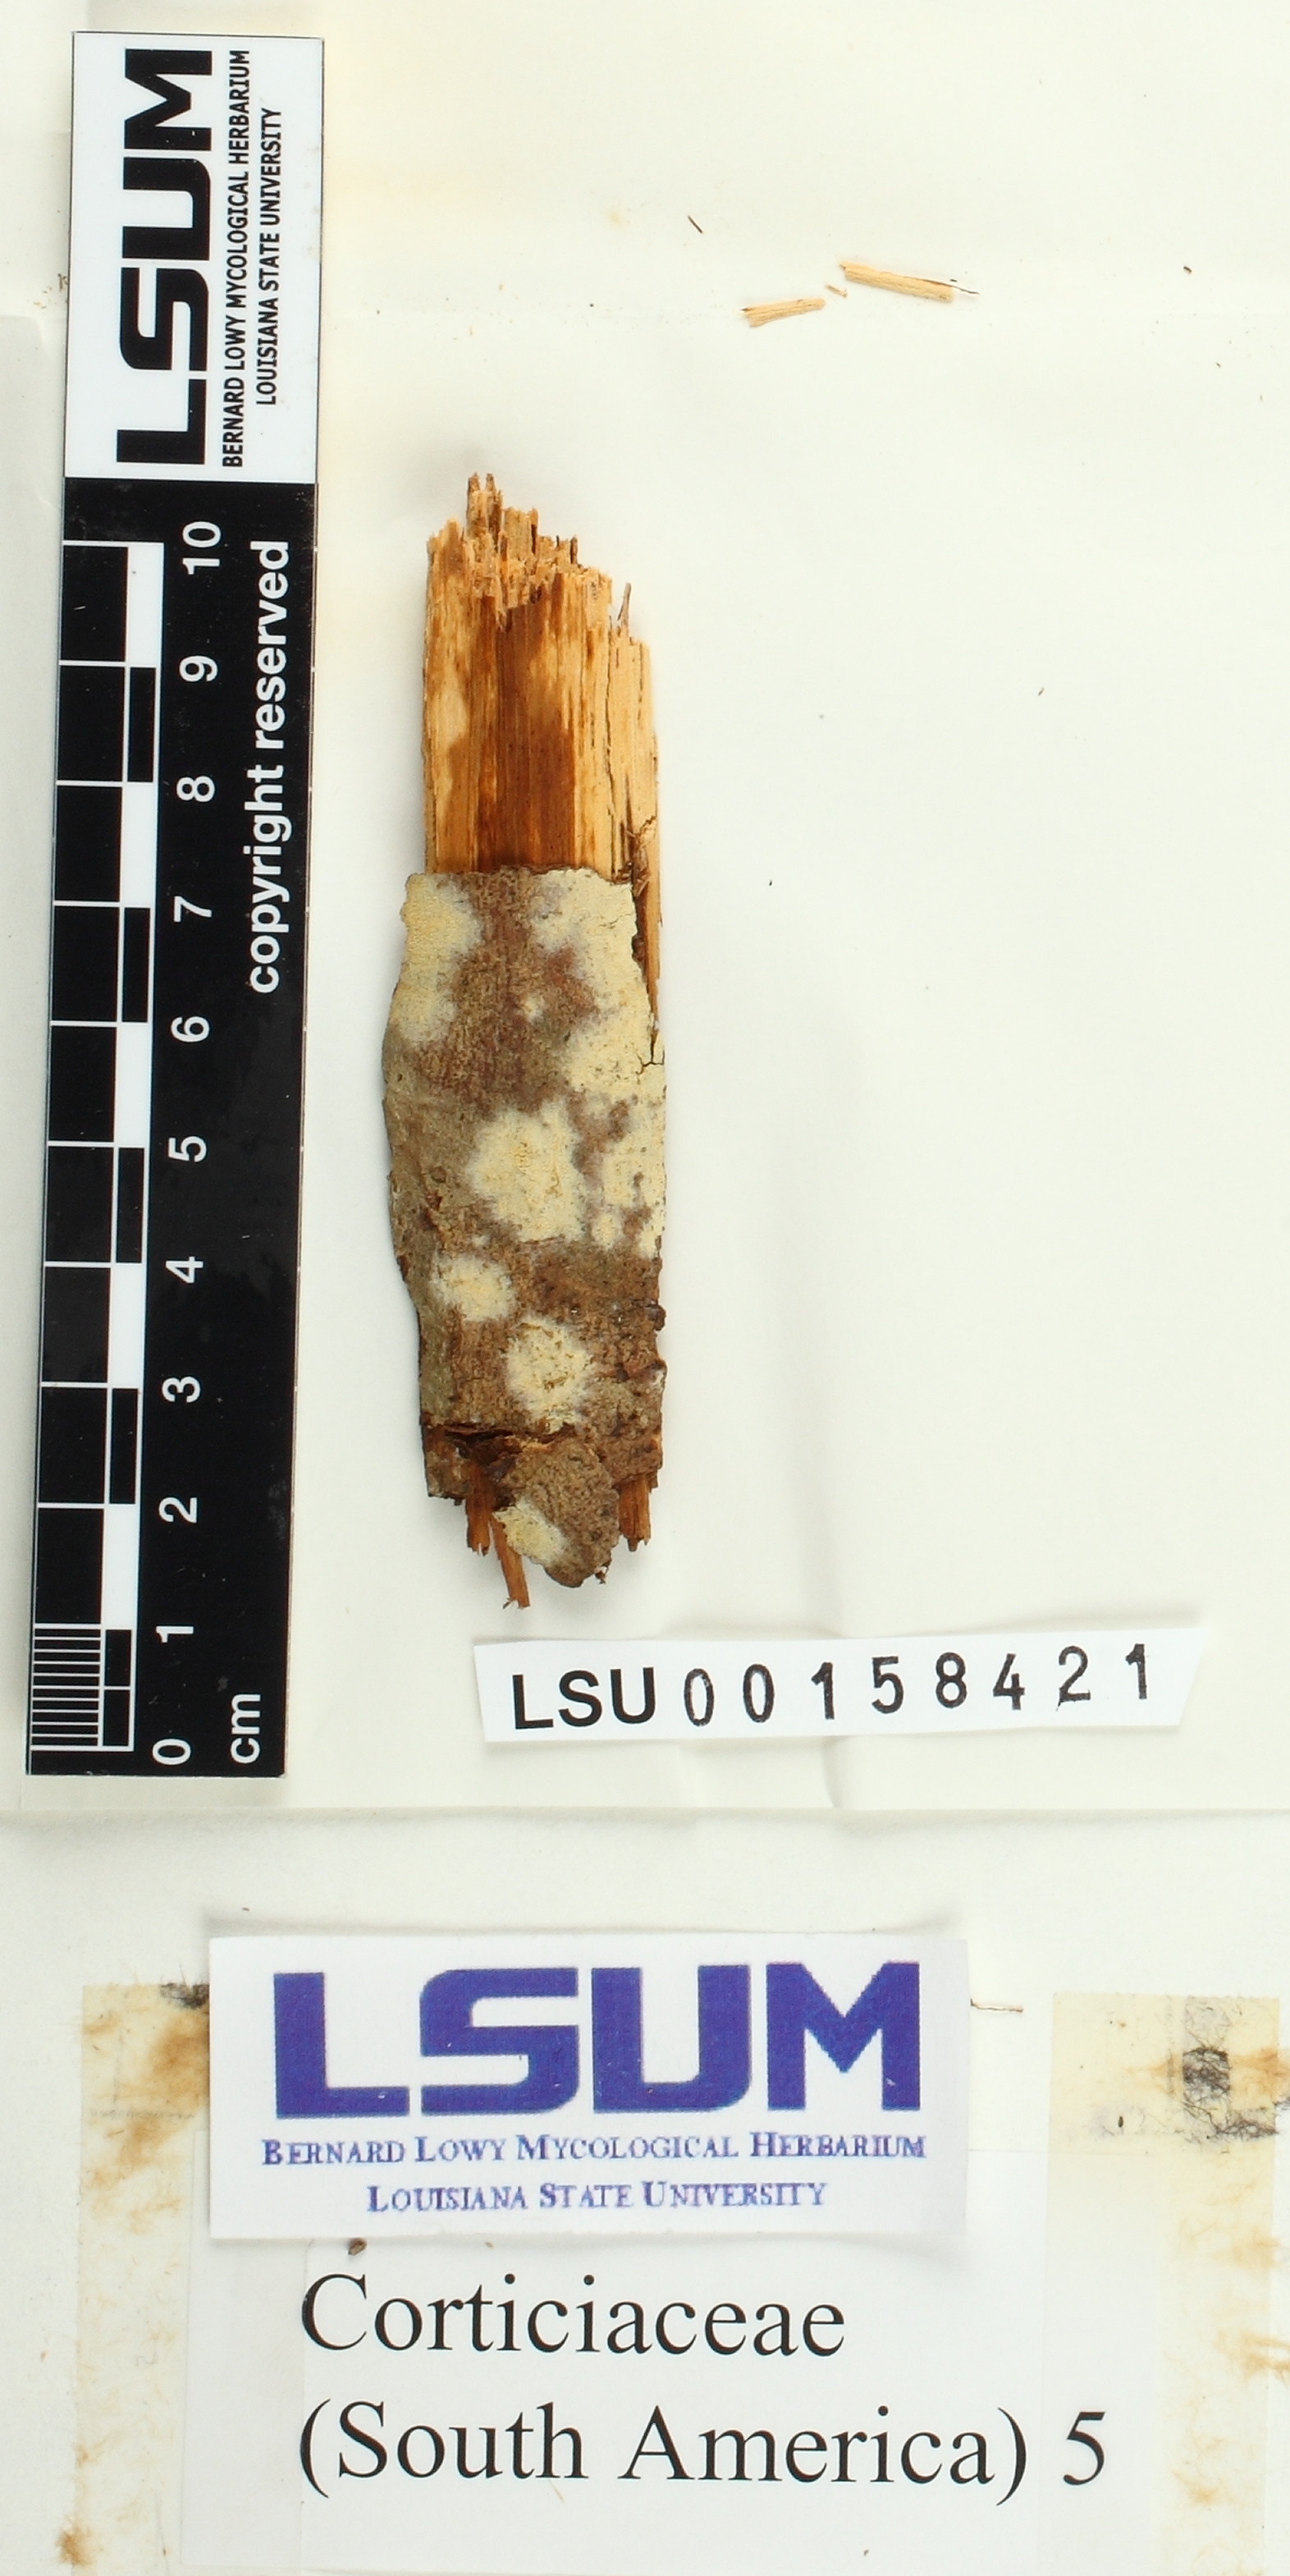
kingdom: Fungi
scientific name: Fungi
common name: Fungi
